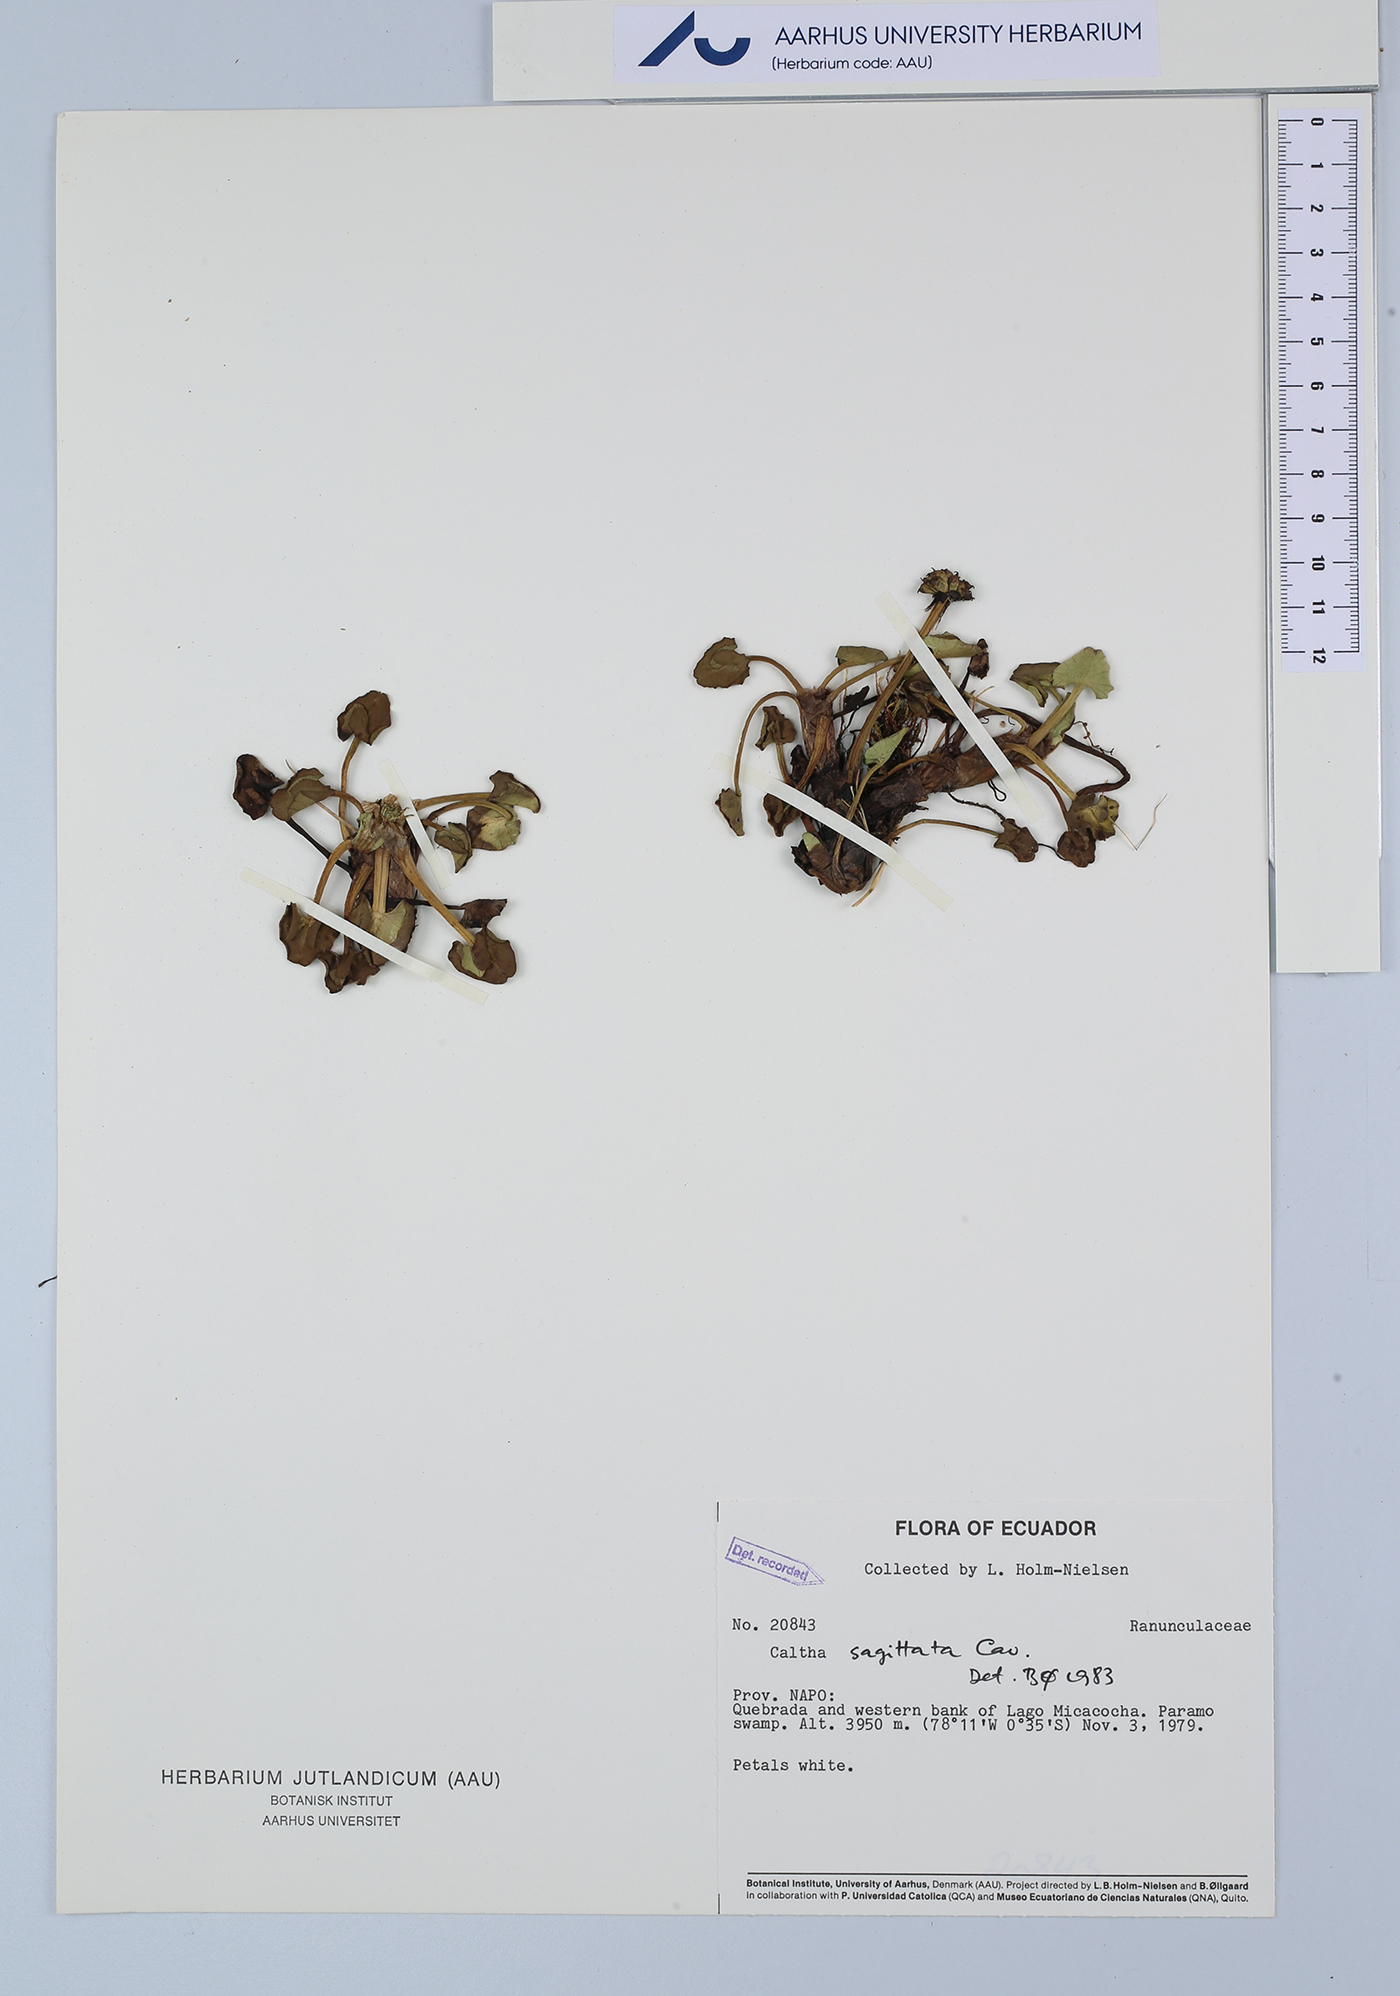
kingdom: Plantae
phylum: Tracheophyta
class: Magnoliopsida
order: Ranunculales
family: Ranunculaceae
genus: Caltha
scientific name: Caltha sagittata
